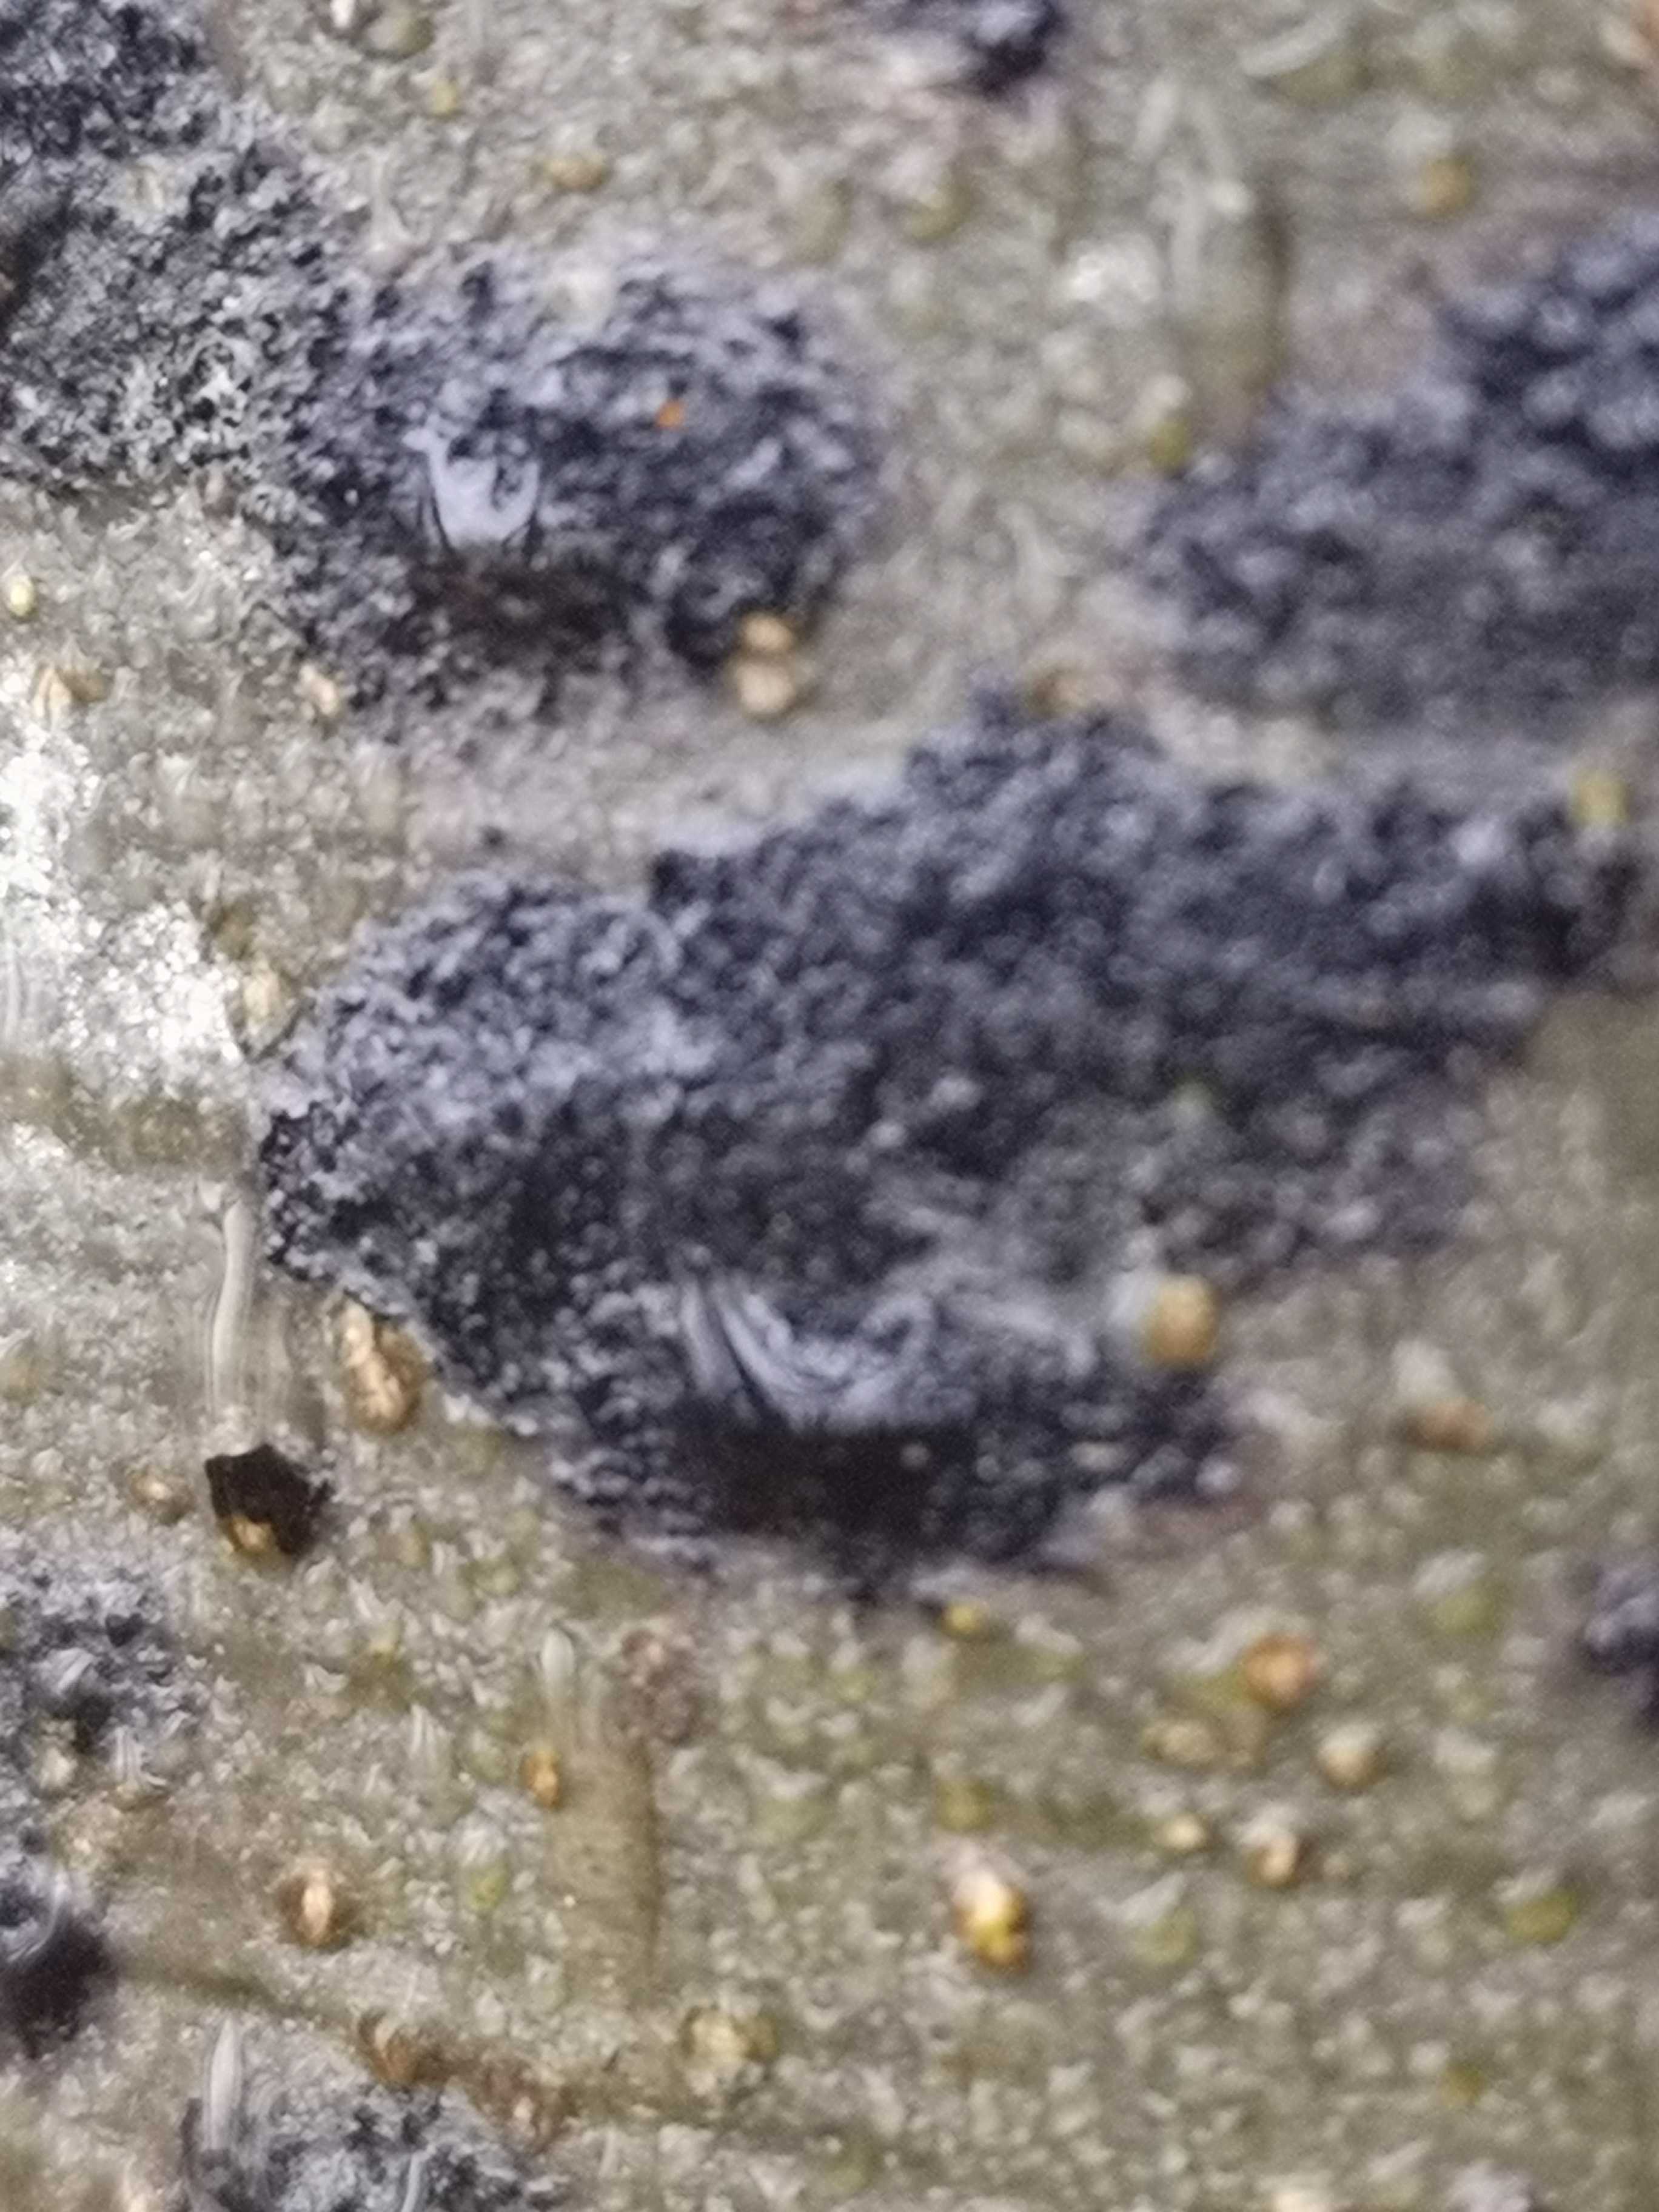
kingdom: Fungi
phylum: Ascomycota
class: Leotiomycetes
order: Rhytismatales
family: Ascodichaenaceae
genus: Ascodichaena
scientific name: Ascodichaena rugosa
